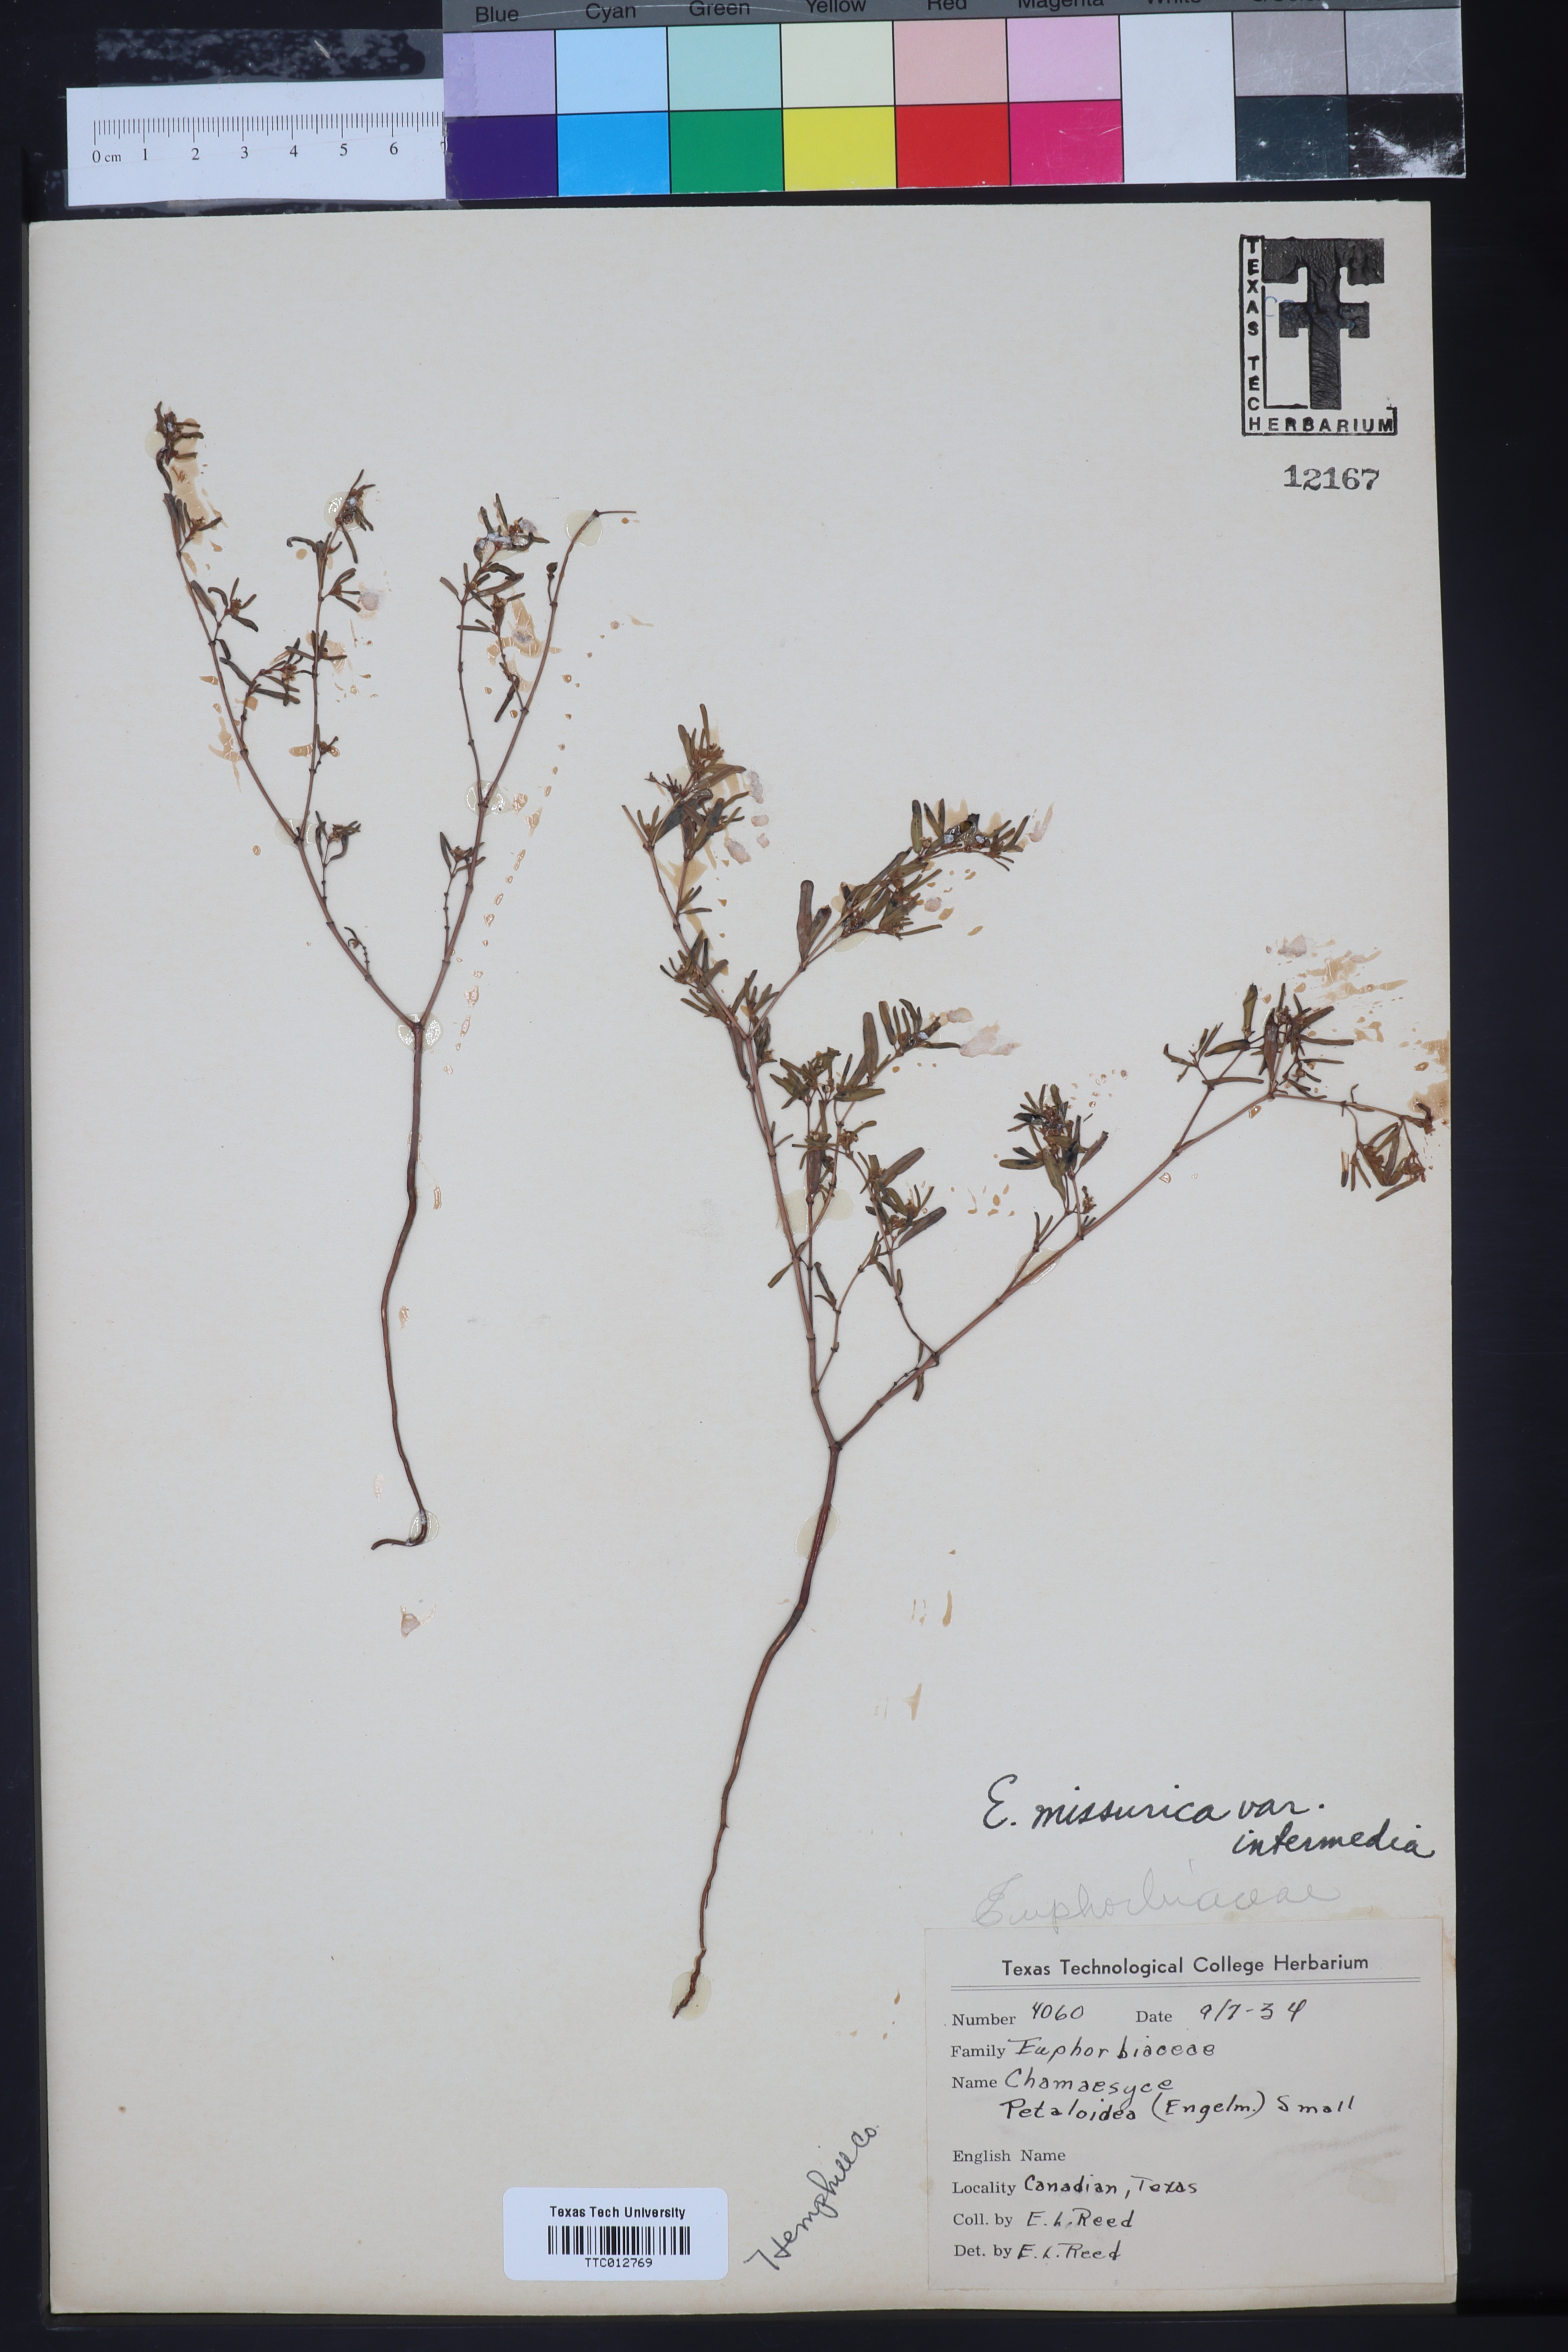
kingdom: Plantae
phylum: Tracheophyta
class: Magnoliopsida
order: Malpighiales
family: Euphorbiaceae
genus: Euphorbia
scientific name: Euphorbia missurica
